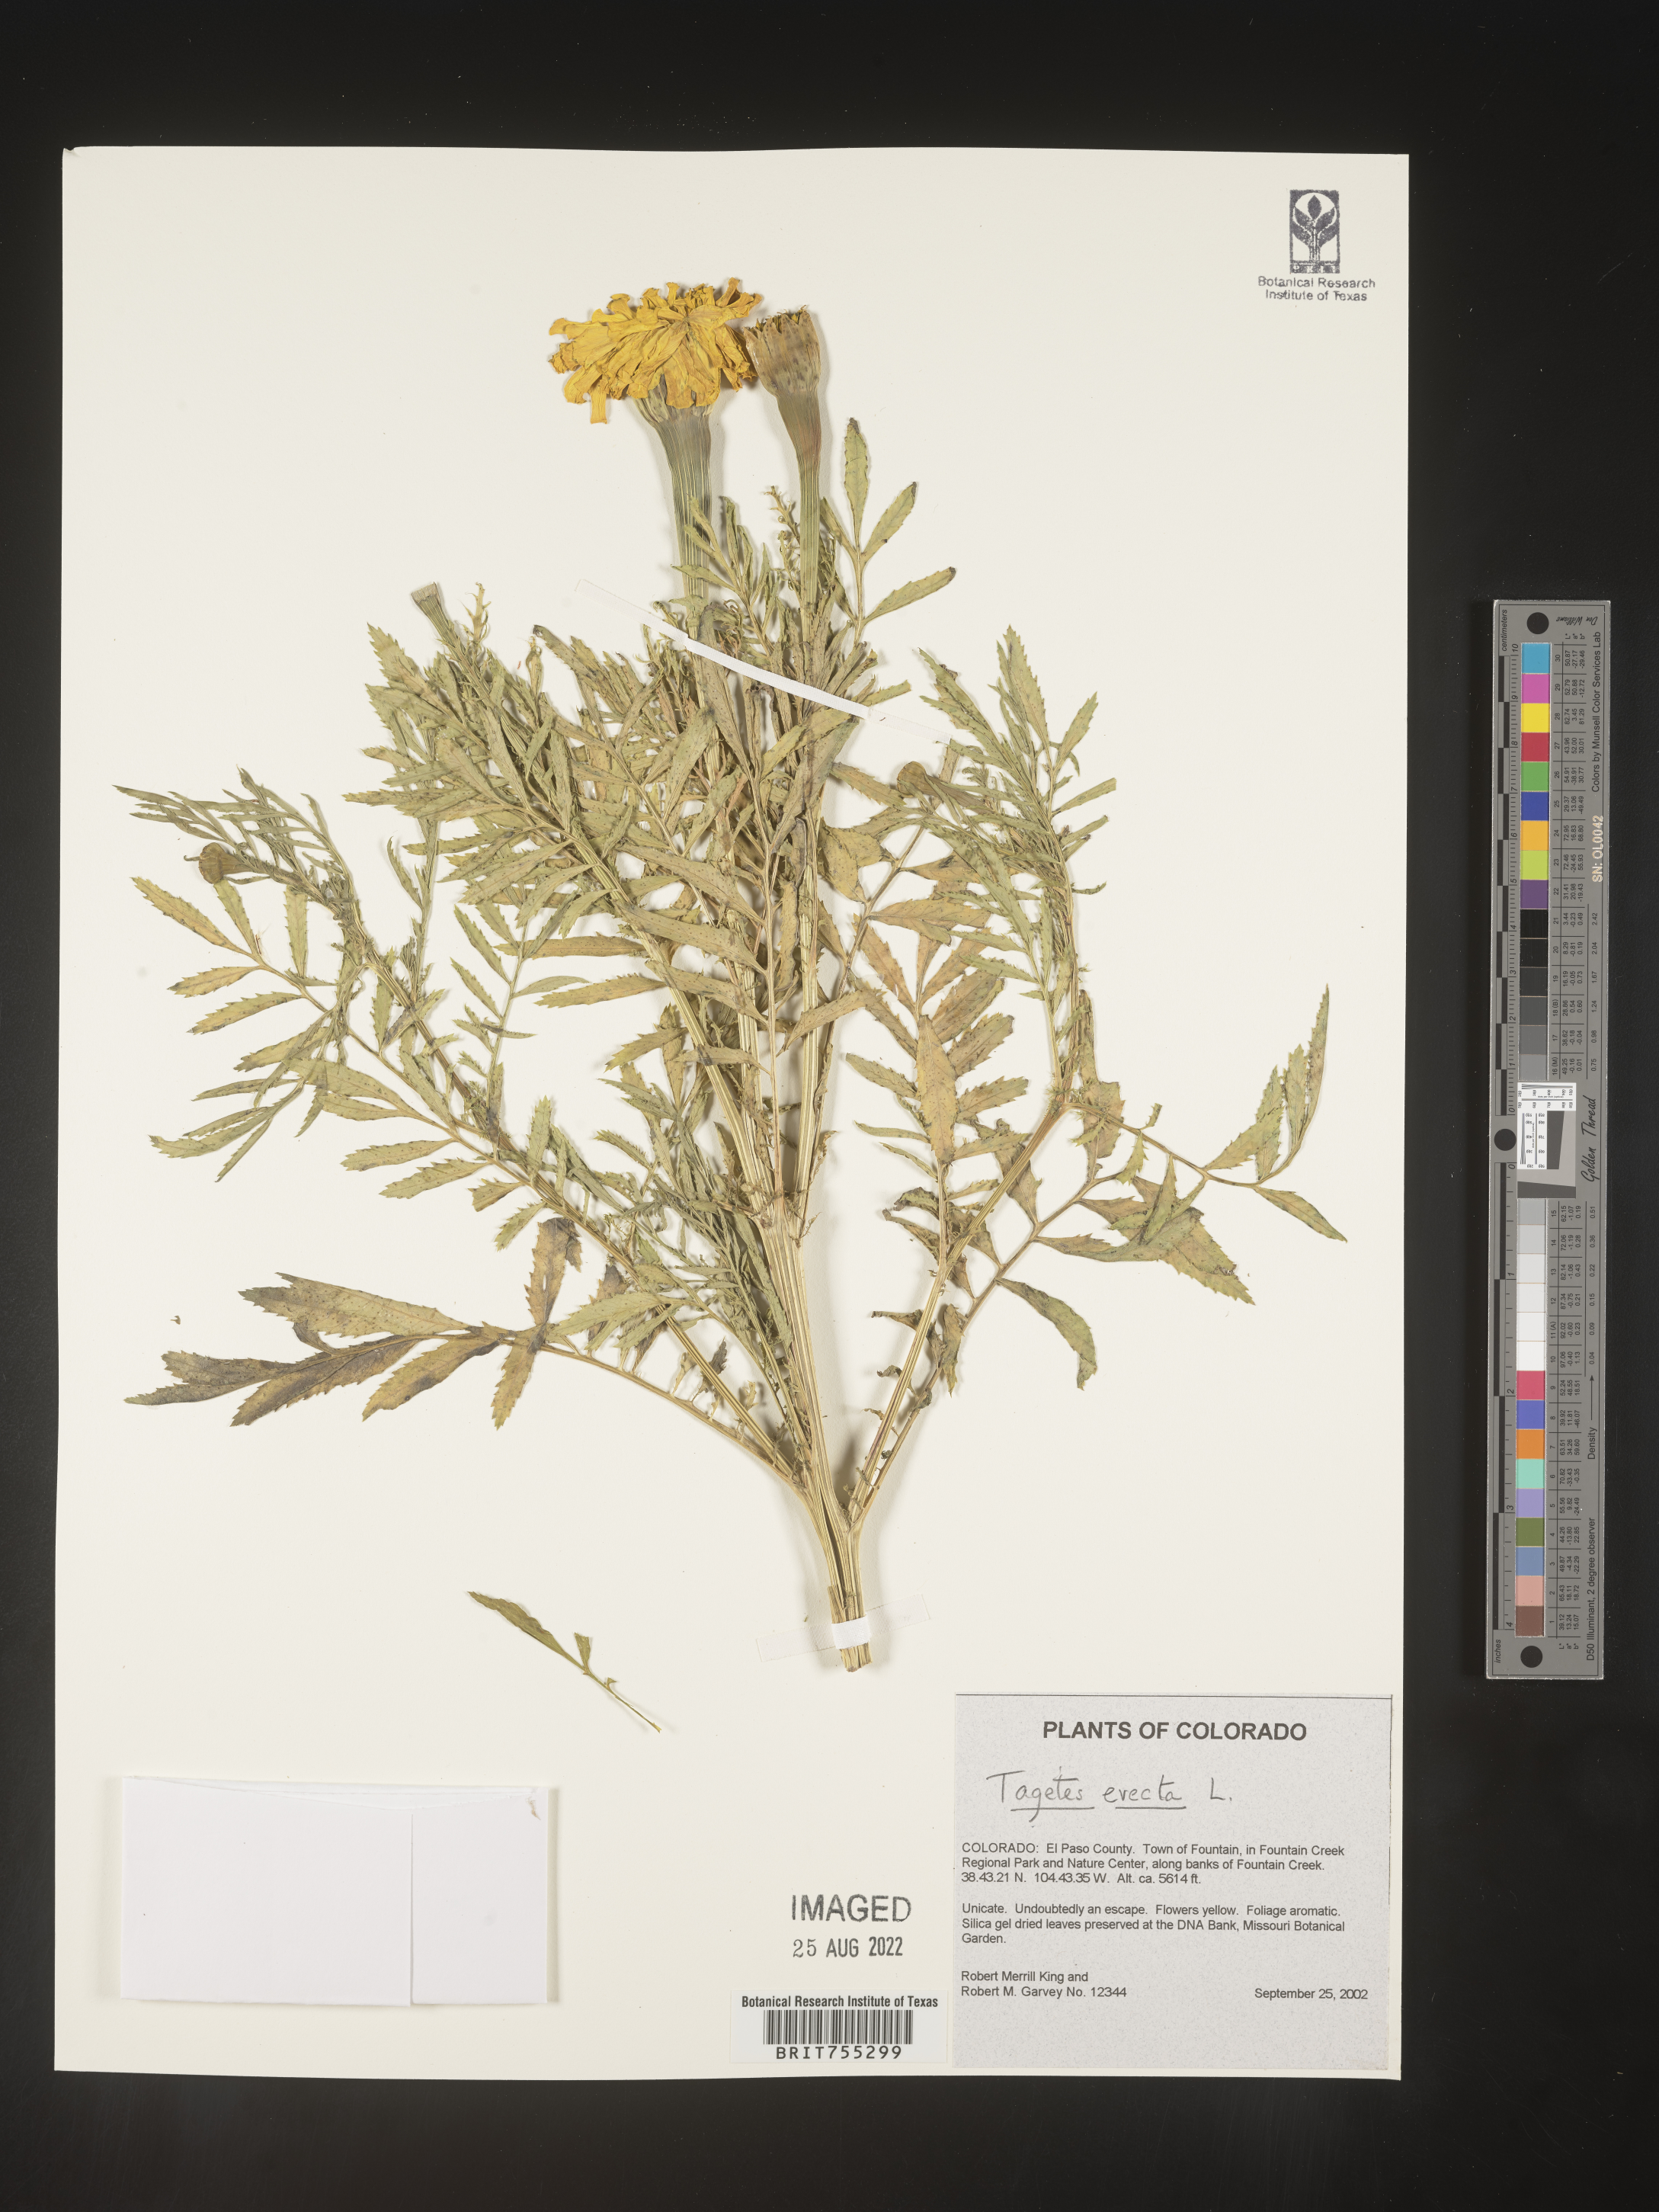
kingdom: Plantae
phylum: Tracheophyta
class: Magnoliopsida
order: Asterales
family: Asteraceae
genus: Tagetes
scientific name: Tagetes
